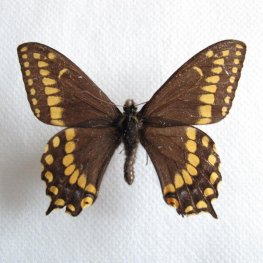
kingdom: Animalia
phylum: Arthropoda
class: Insecta
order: Lepidoptera
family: Papilionidae
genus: Papilio
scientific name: Papilio brevicauda
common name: Short-tailed Swallowtail
